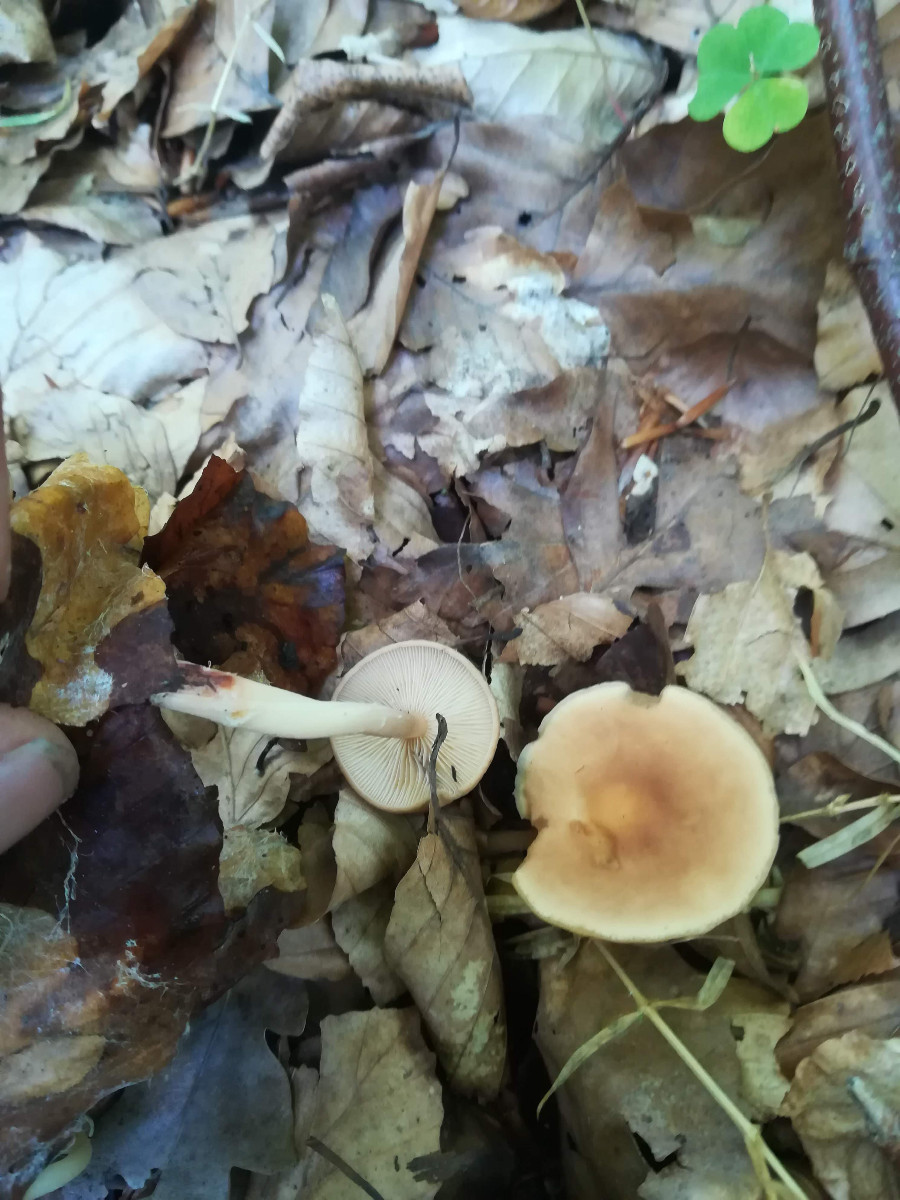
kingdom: Fungi
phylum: Basidiomycota
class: Agaricomycetes
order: Agaricales
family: Omphalotaceae
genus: Gymnopus
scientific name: Gymnopus
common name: fladhat
